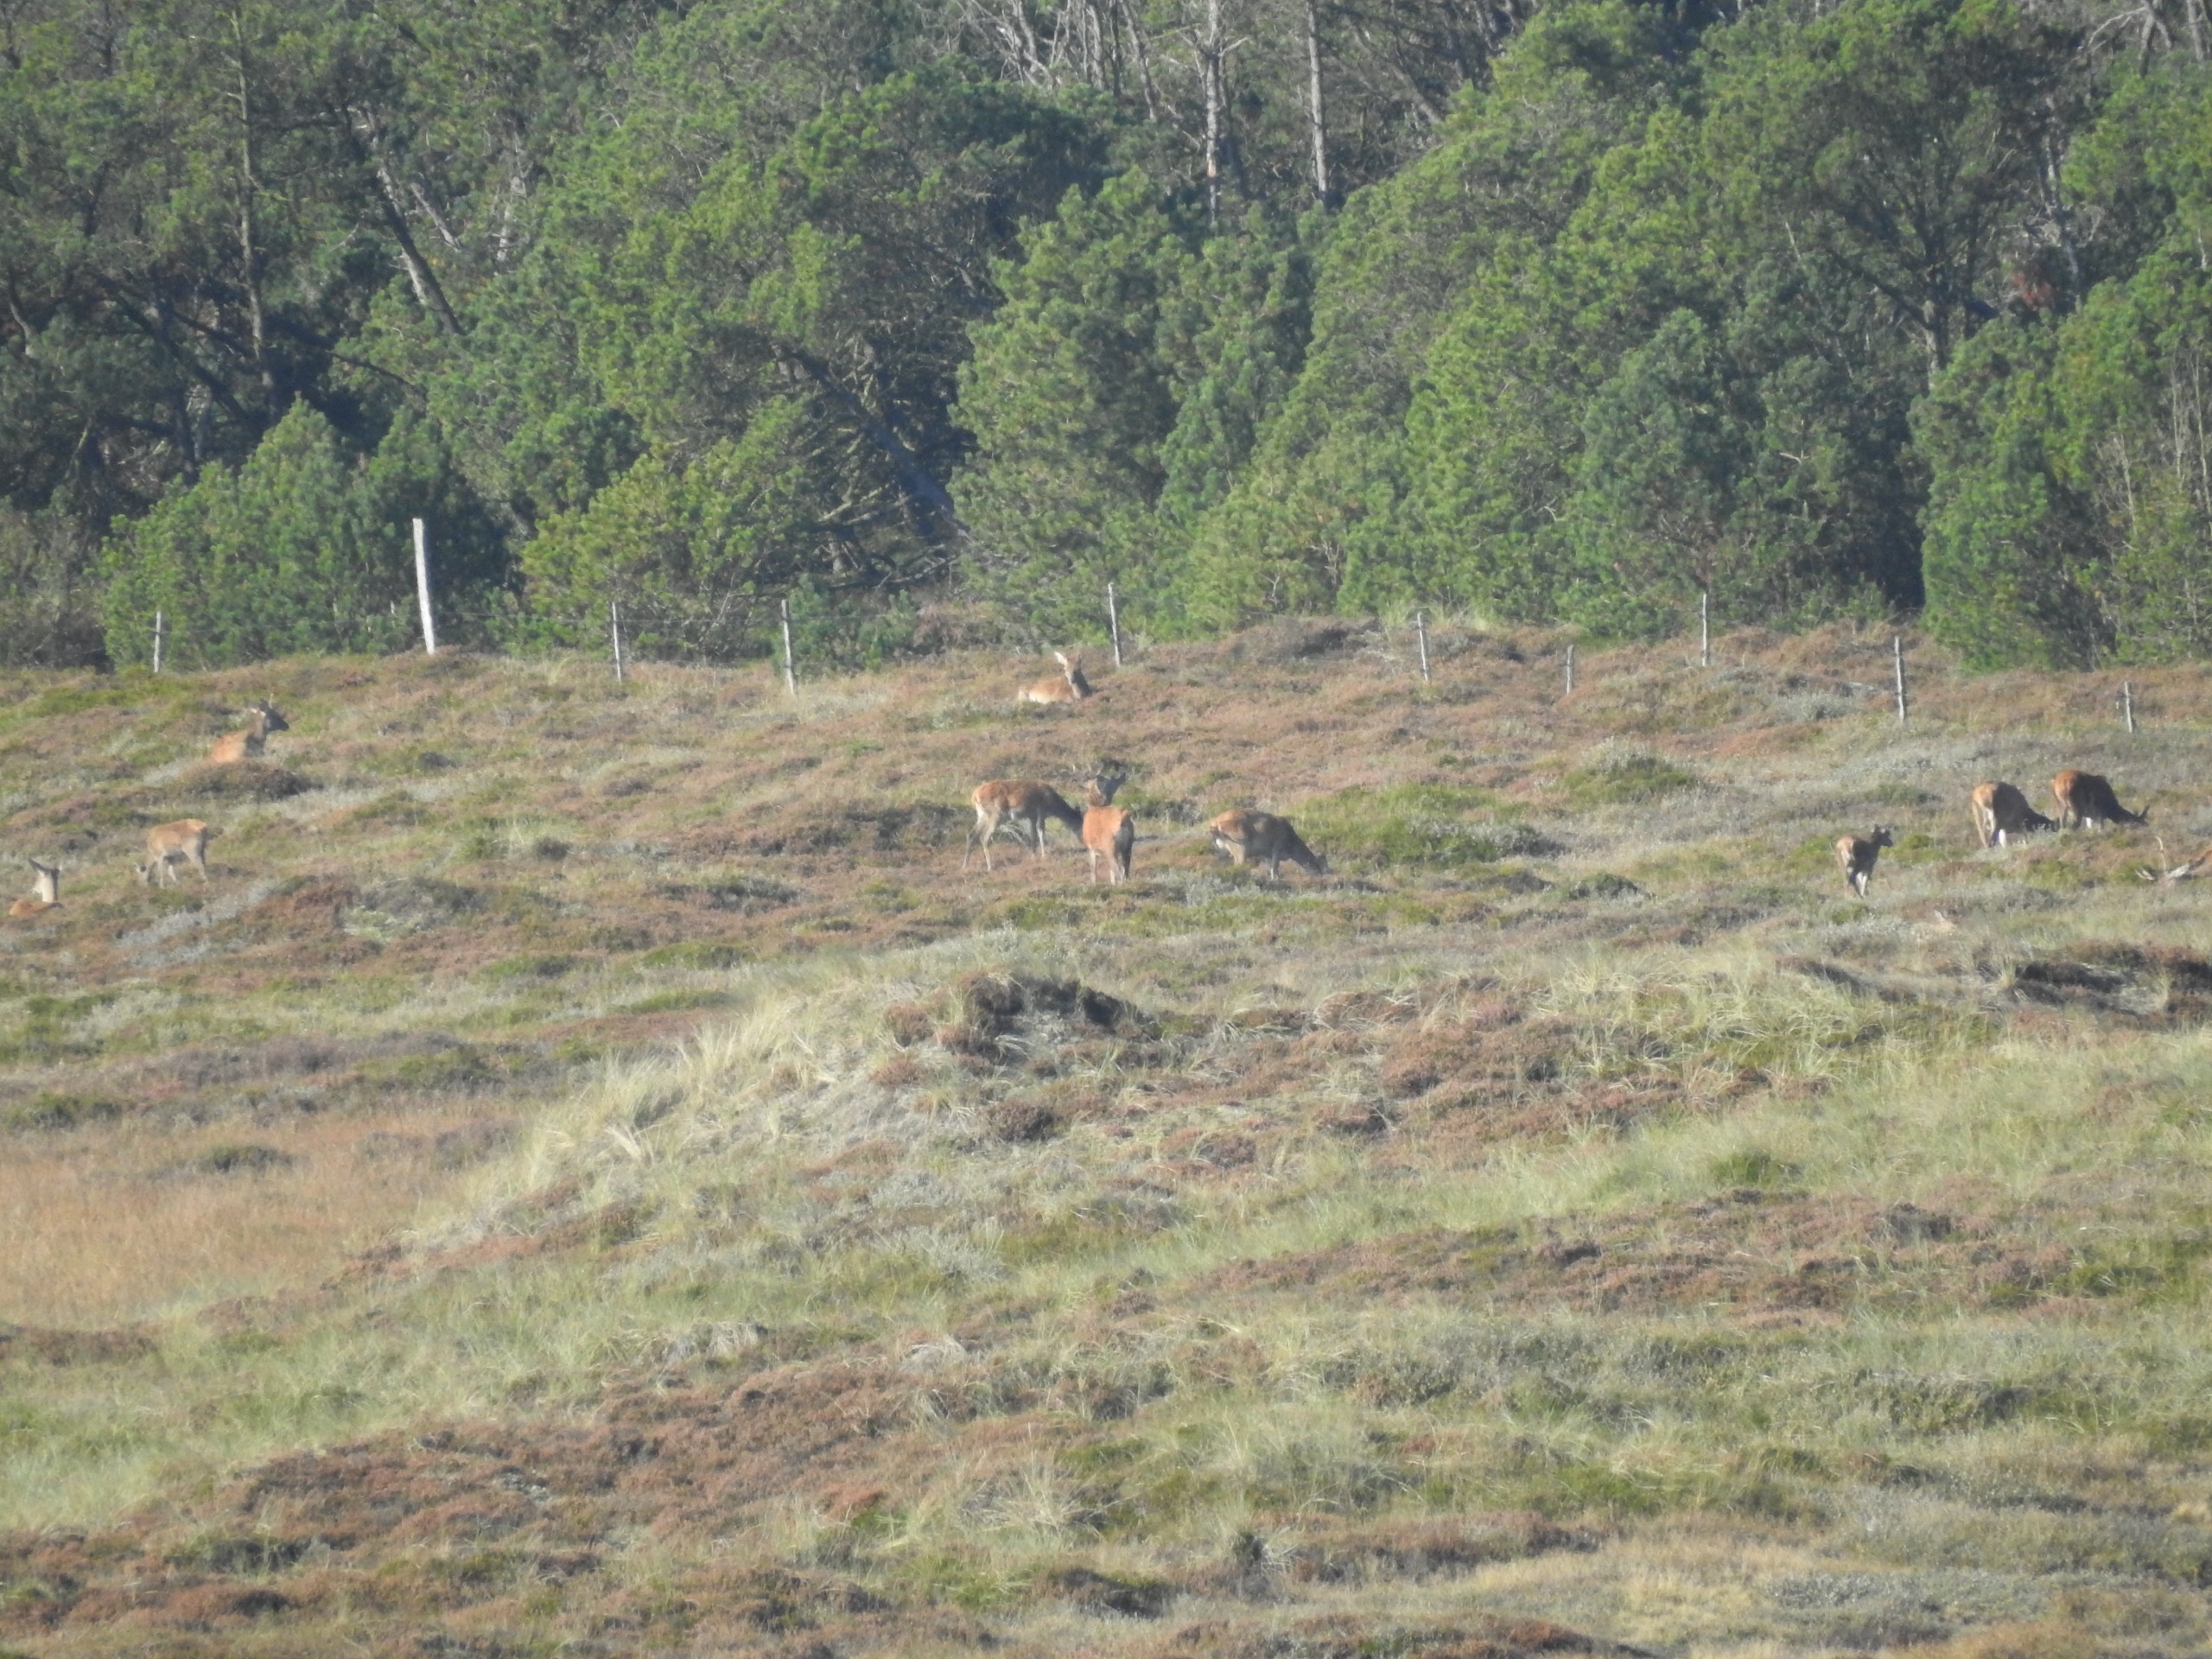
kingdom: Animalia
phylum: Chordata
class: Mammalia
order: Artiodactyla
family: Cervidae
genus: Cervus
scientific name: Cervus elaphus
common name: Krondyr
